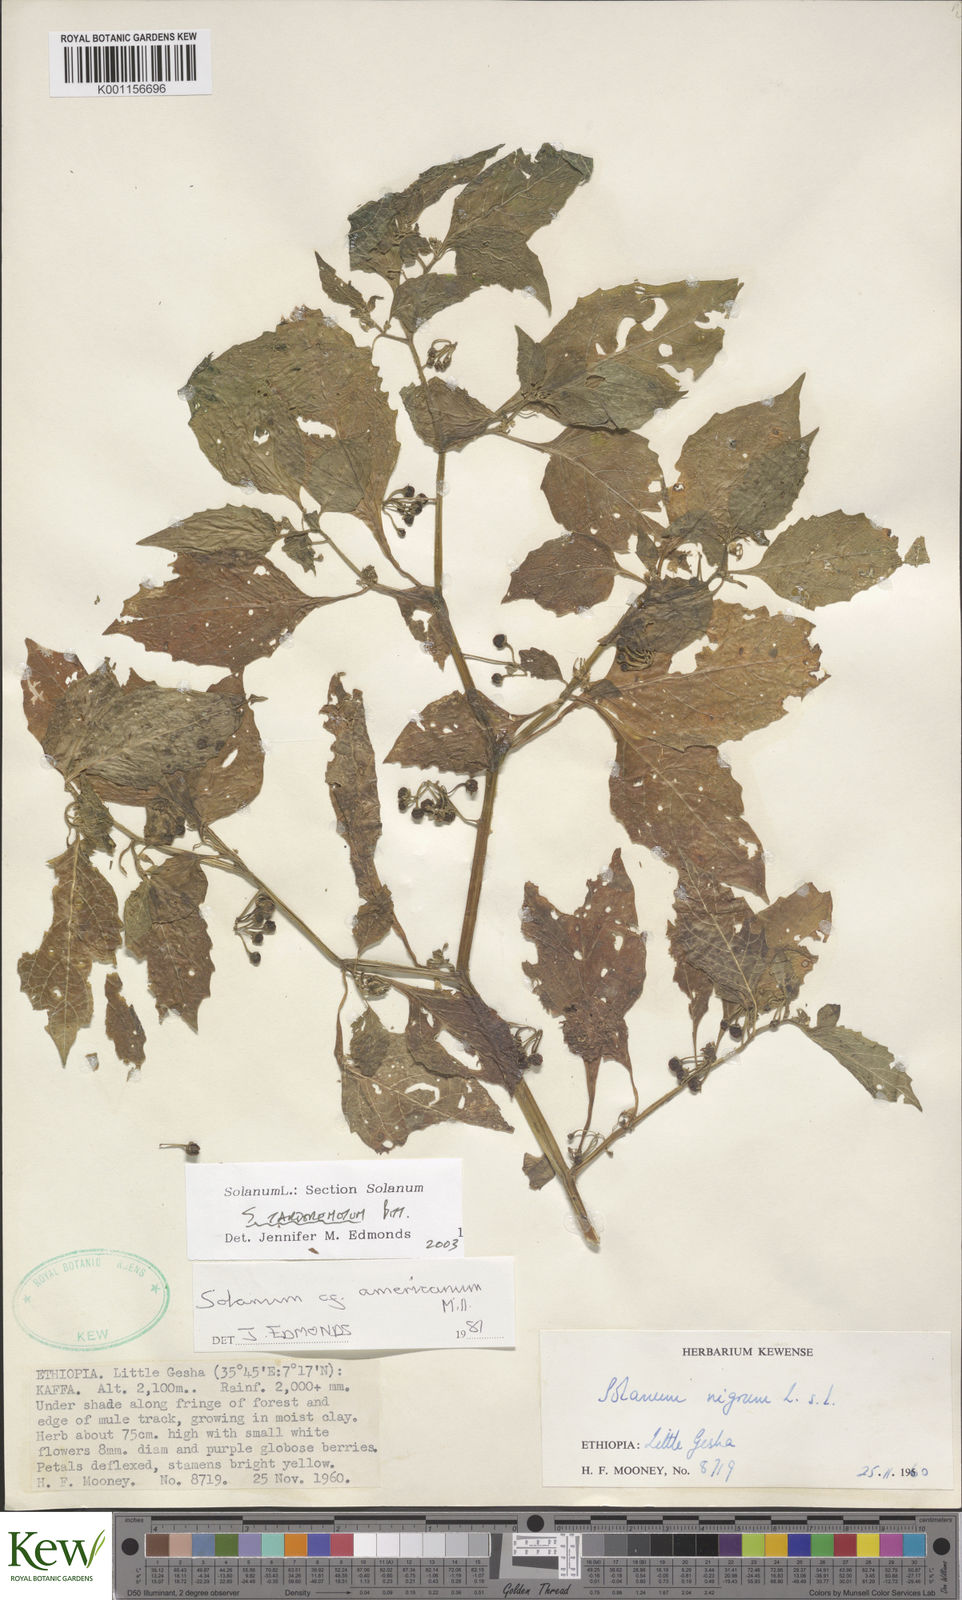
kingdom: Plantae
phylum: Tracheophyta
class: Magnoliopsida
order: Solanales
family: Solanaceae
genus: Solanum
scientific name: Solanum tarderemotum
